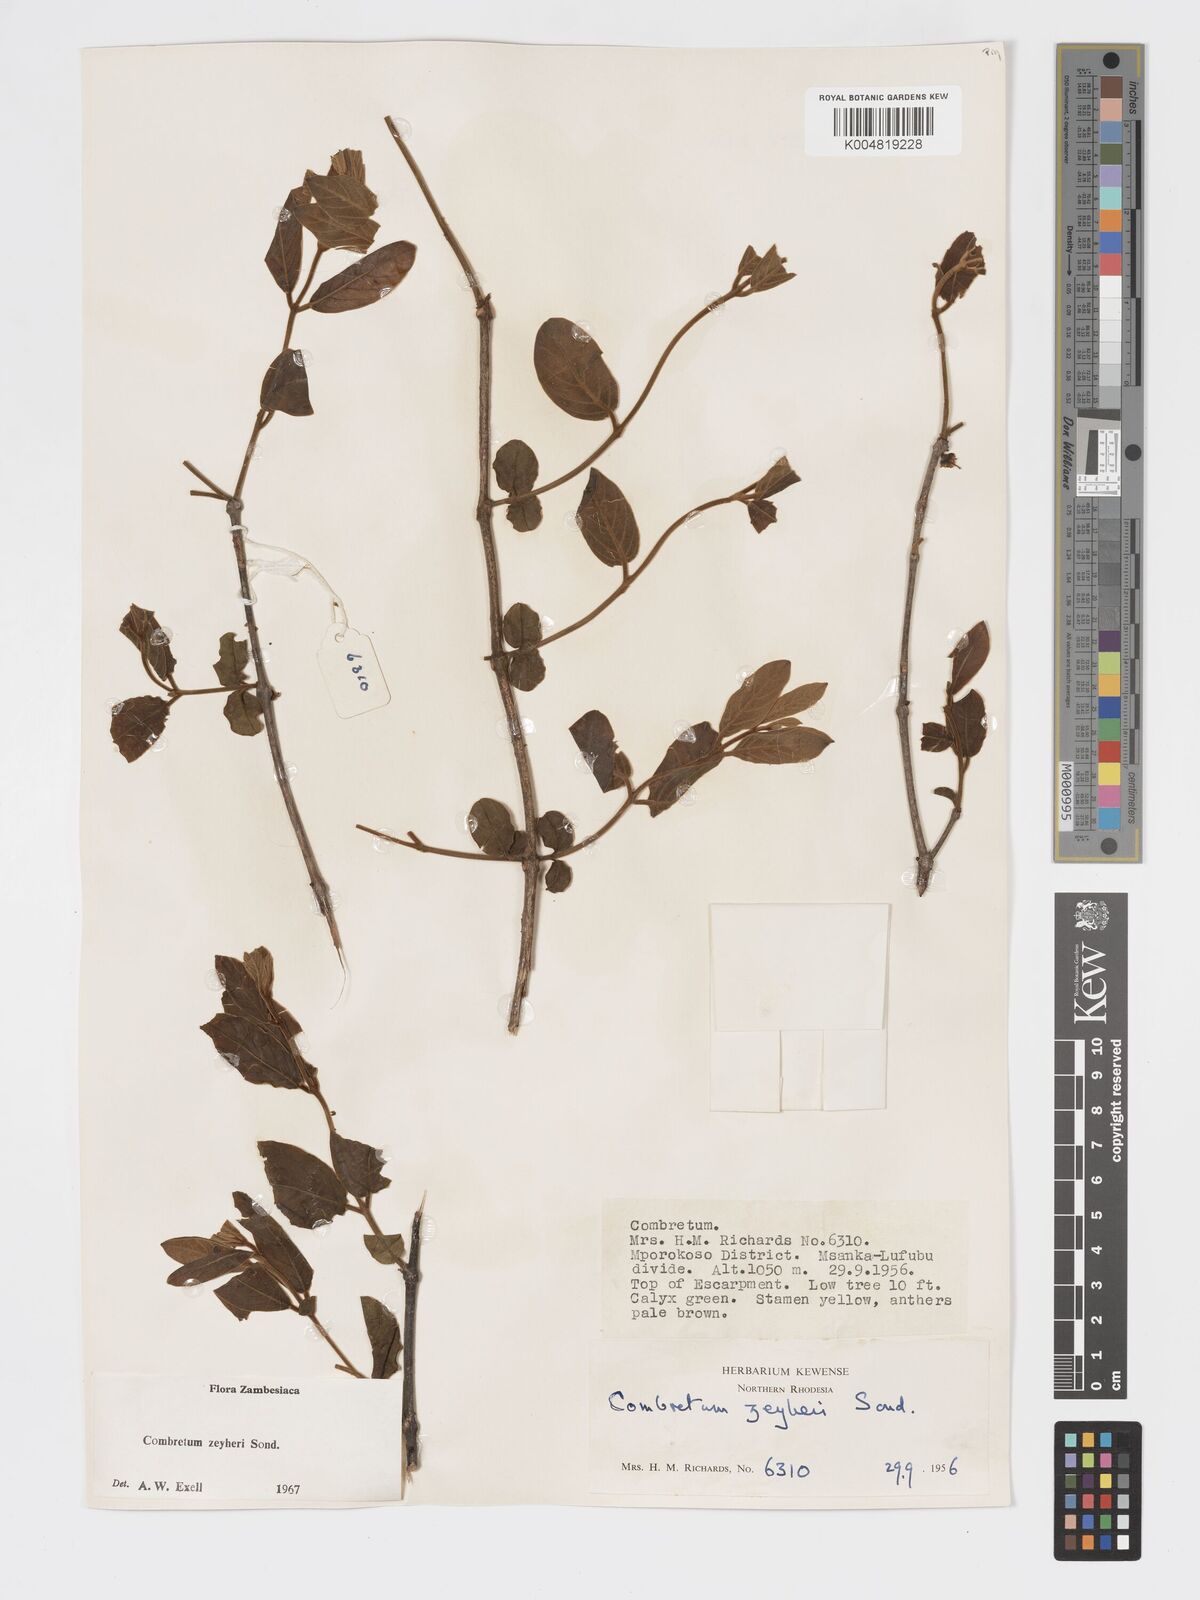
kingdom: Plantae
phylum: Tracheophyta
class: Magnoliopsida
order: Myrtales
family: Combretaceae
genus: Combretum
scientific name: Combretum zeyheri
